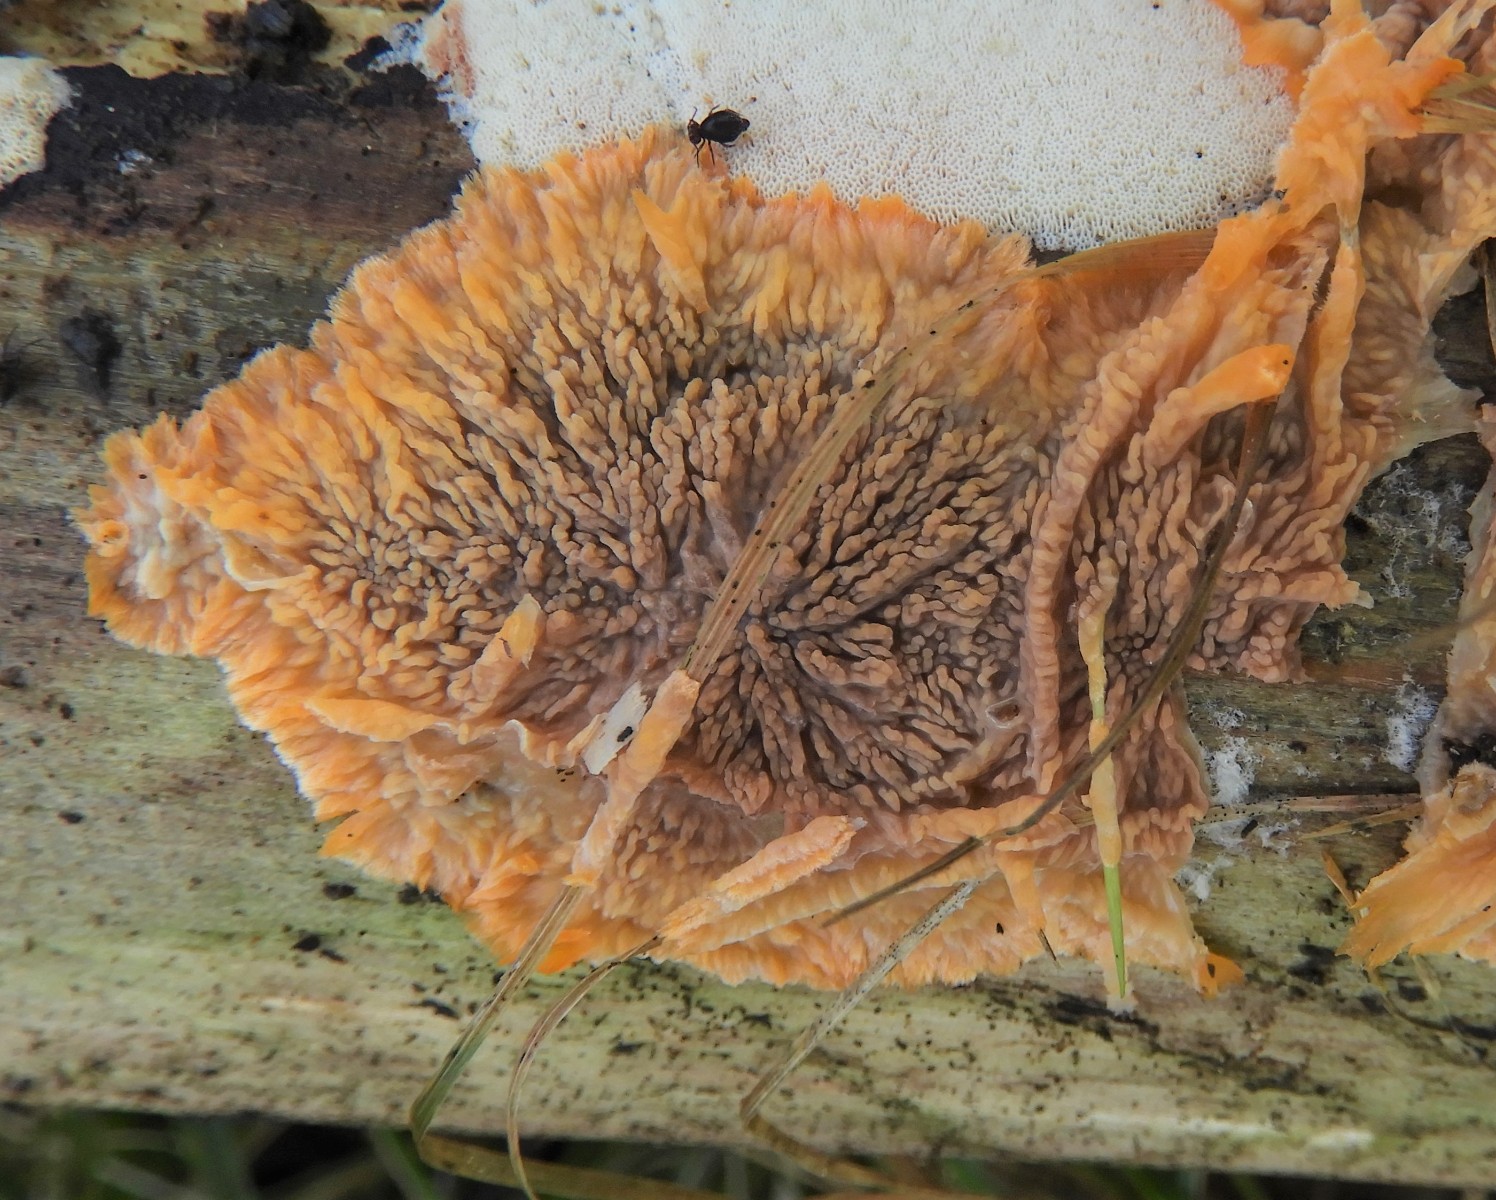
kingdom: Fungi
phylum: Basidiomycota
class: Agaricomycetes
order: Polyporales
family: Meruliaceae
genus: Phlebia
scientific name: Phlebia radiata
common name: stråle-åresvamp
